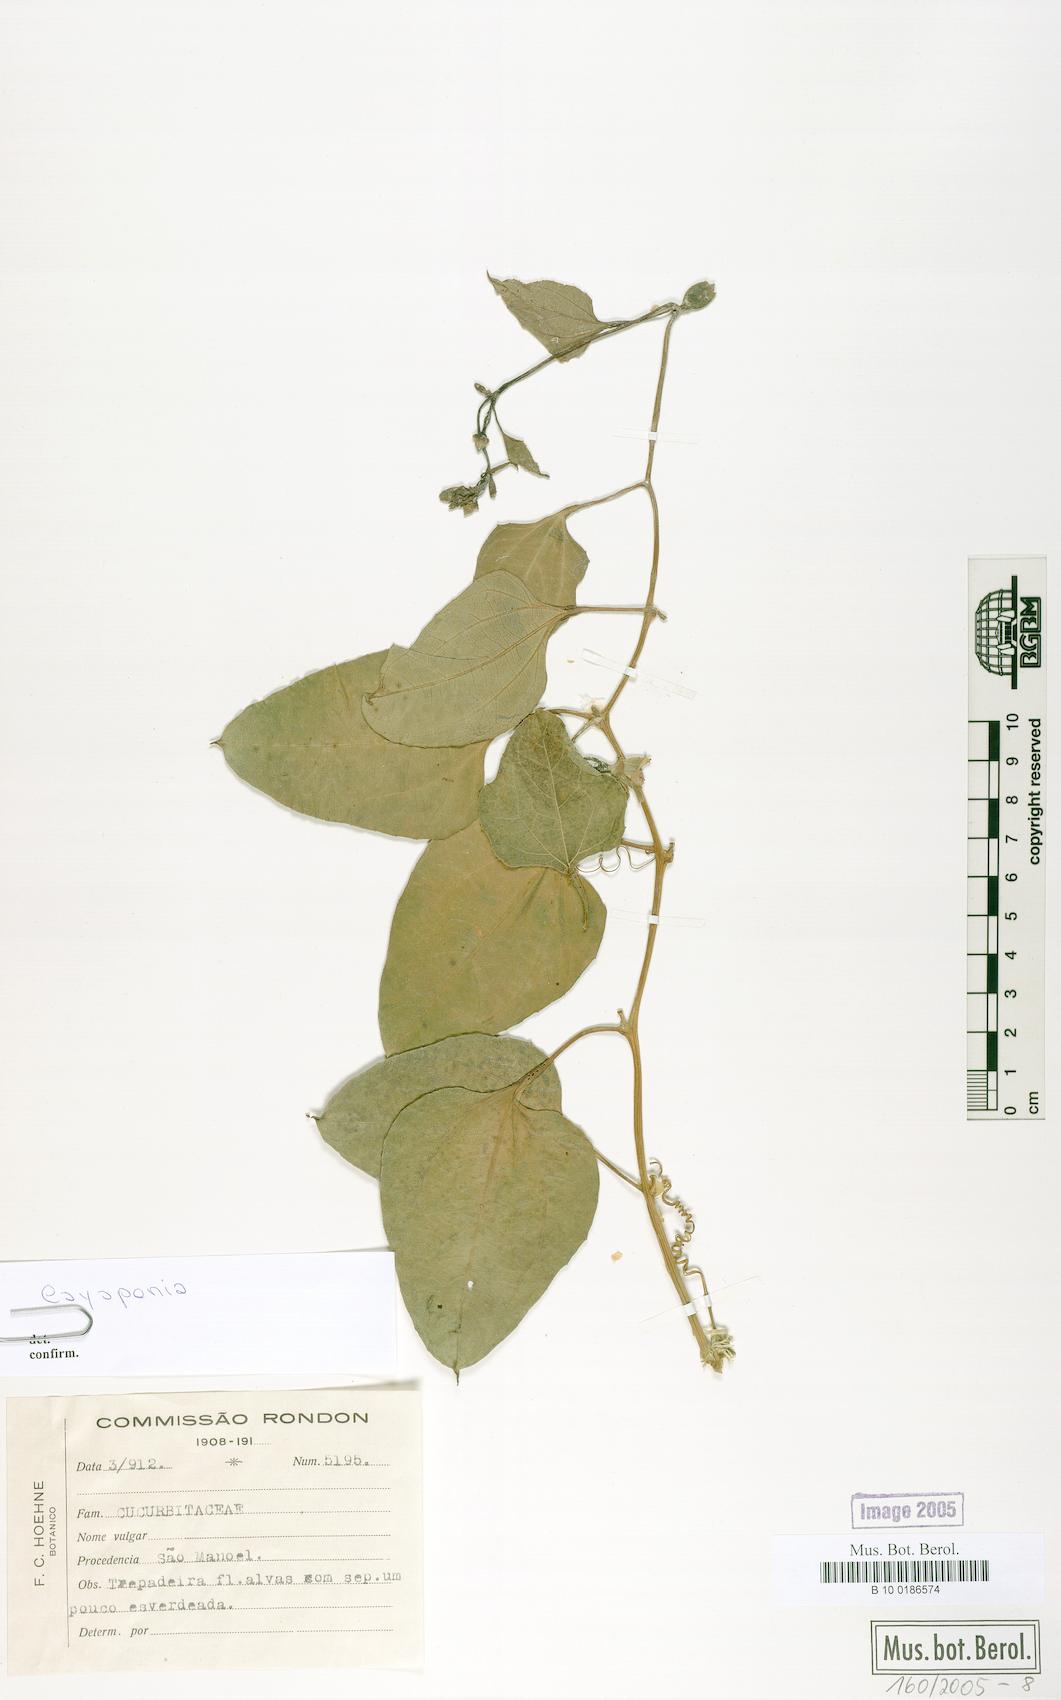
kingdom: Plantae
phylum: Tracheophyta
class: Magnoliopsida
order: Cucurbitales
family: Cucurbitaceae
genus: Cayaponia
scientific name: Cayaponia glandulosa
